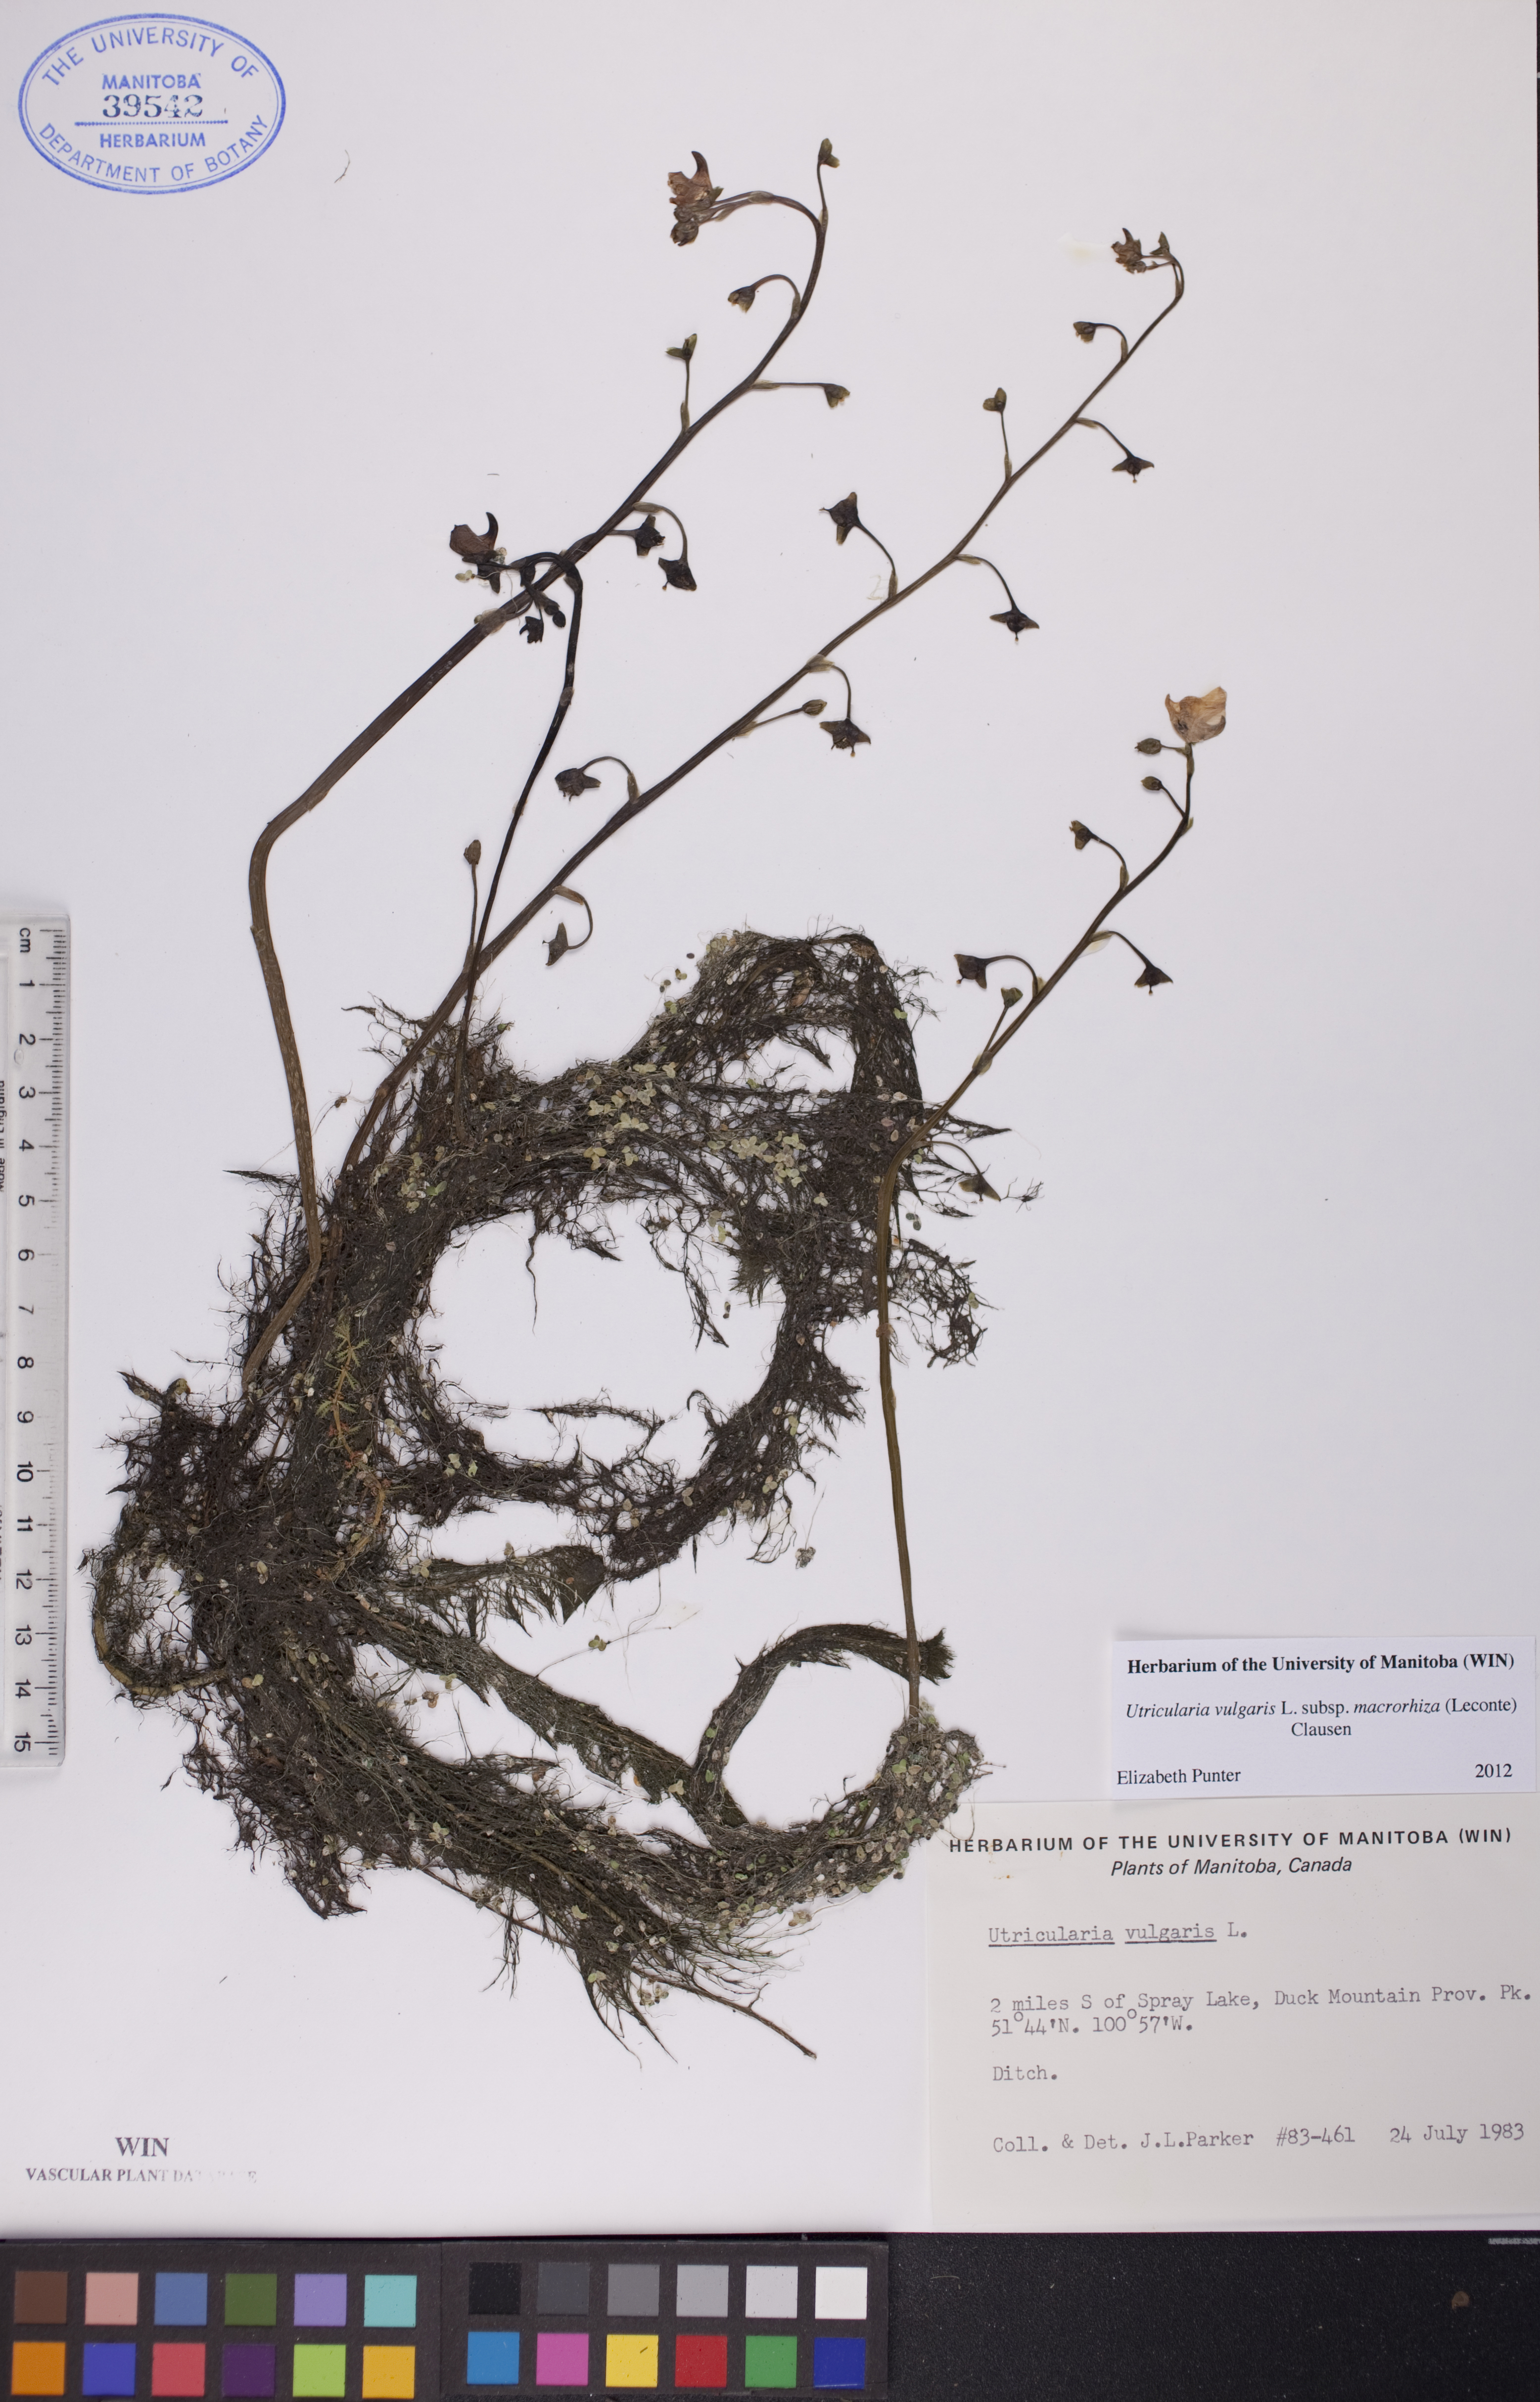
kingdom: Plantae
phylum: Tracheophyta
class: Magnoliopsida
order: Lamiales
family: Lentibulariaceae
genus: Utricularia
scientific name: Utricularia macrorhiza
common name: Common bladderwort
